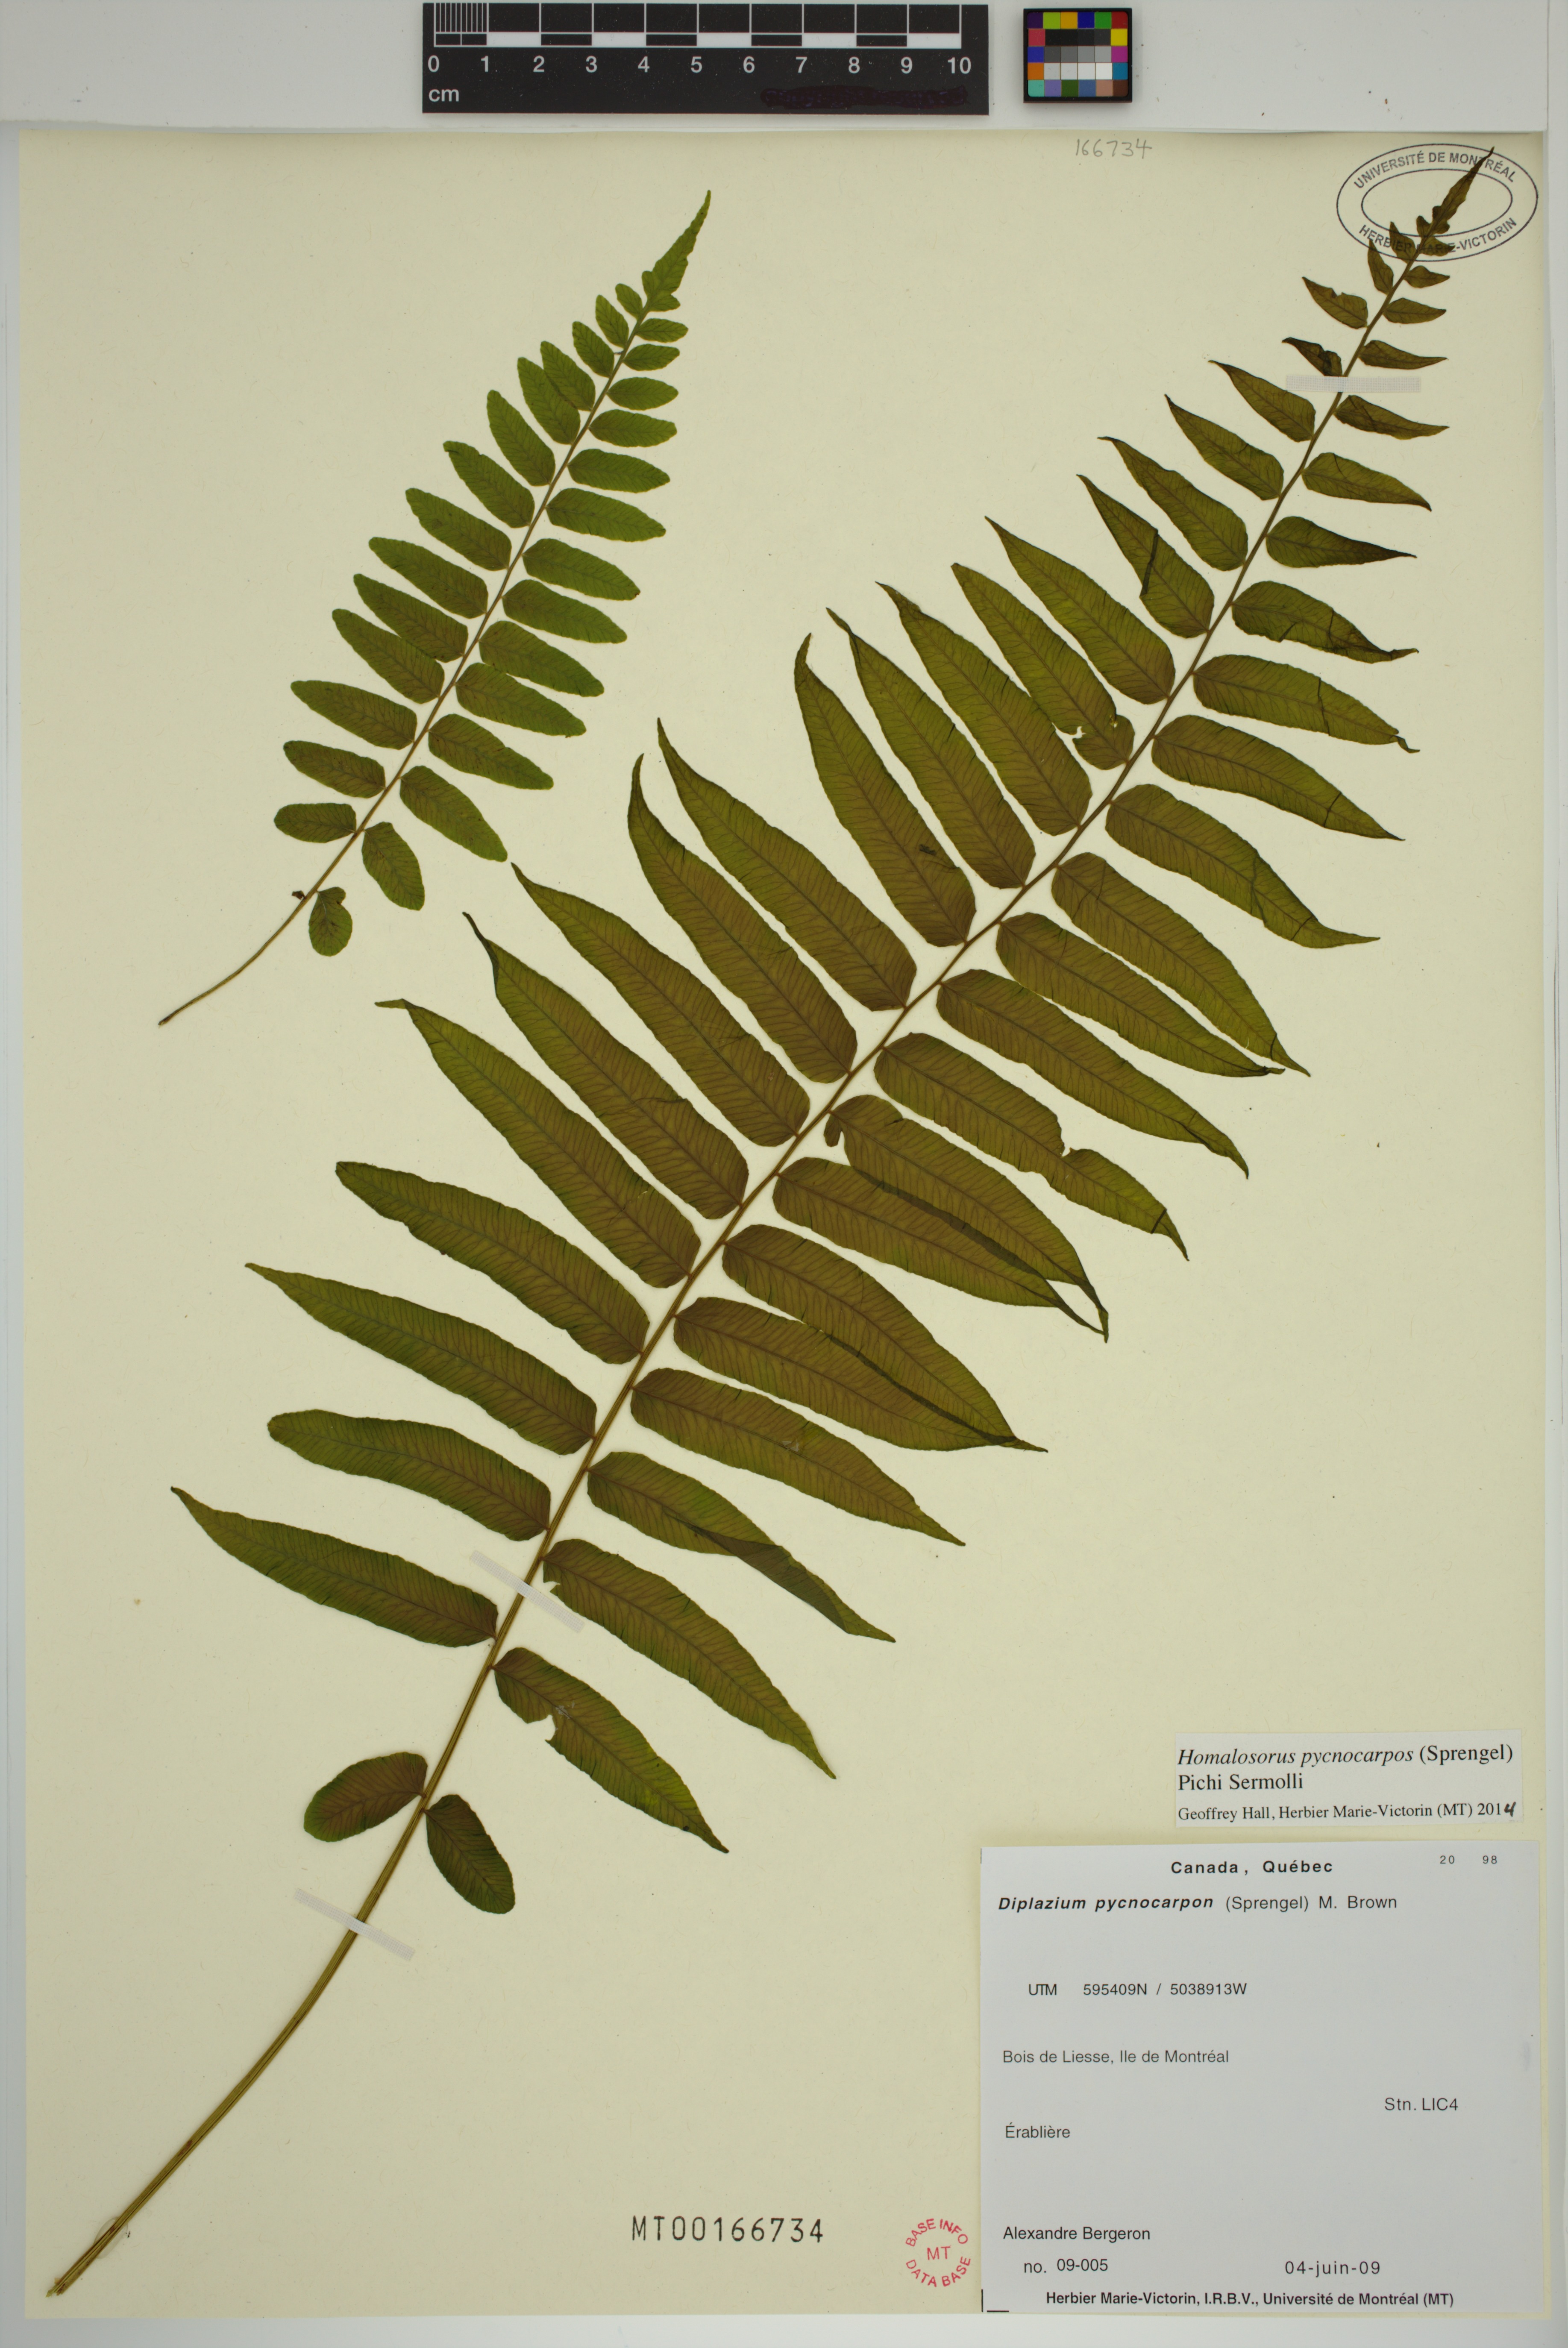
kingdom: Plantae
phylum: Tracheophyta
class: Polypodiopsida
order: Polypodiales
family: Diplaziopsidaceae
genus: Homalosorus
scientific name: Homalosorus pycnocarpos
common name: Glade fern
